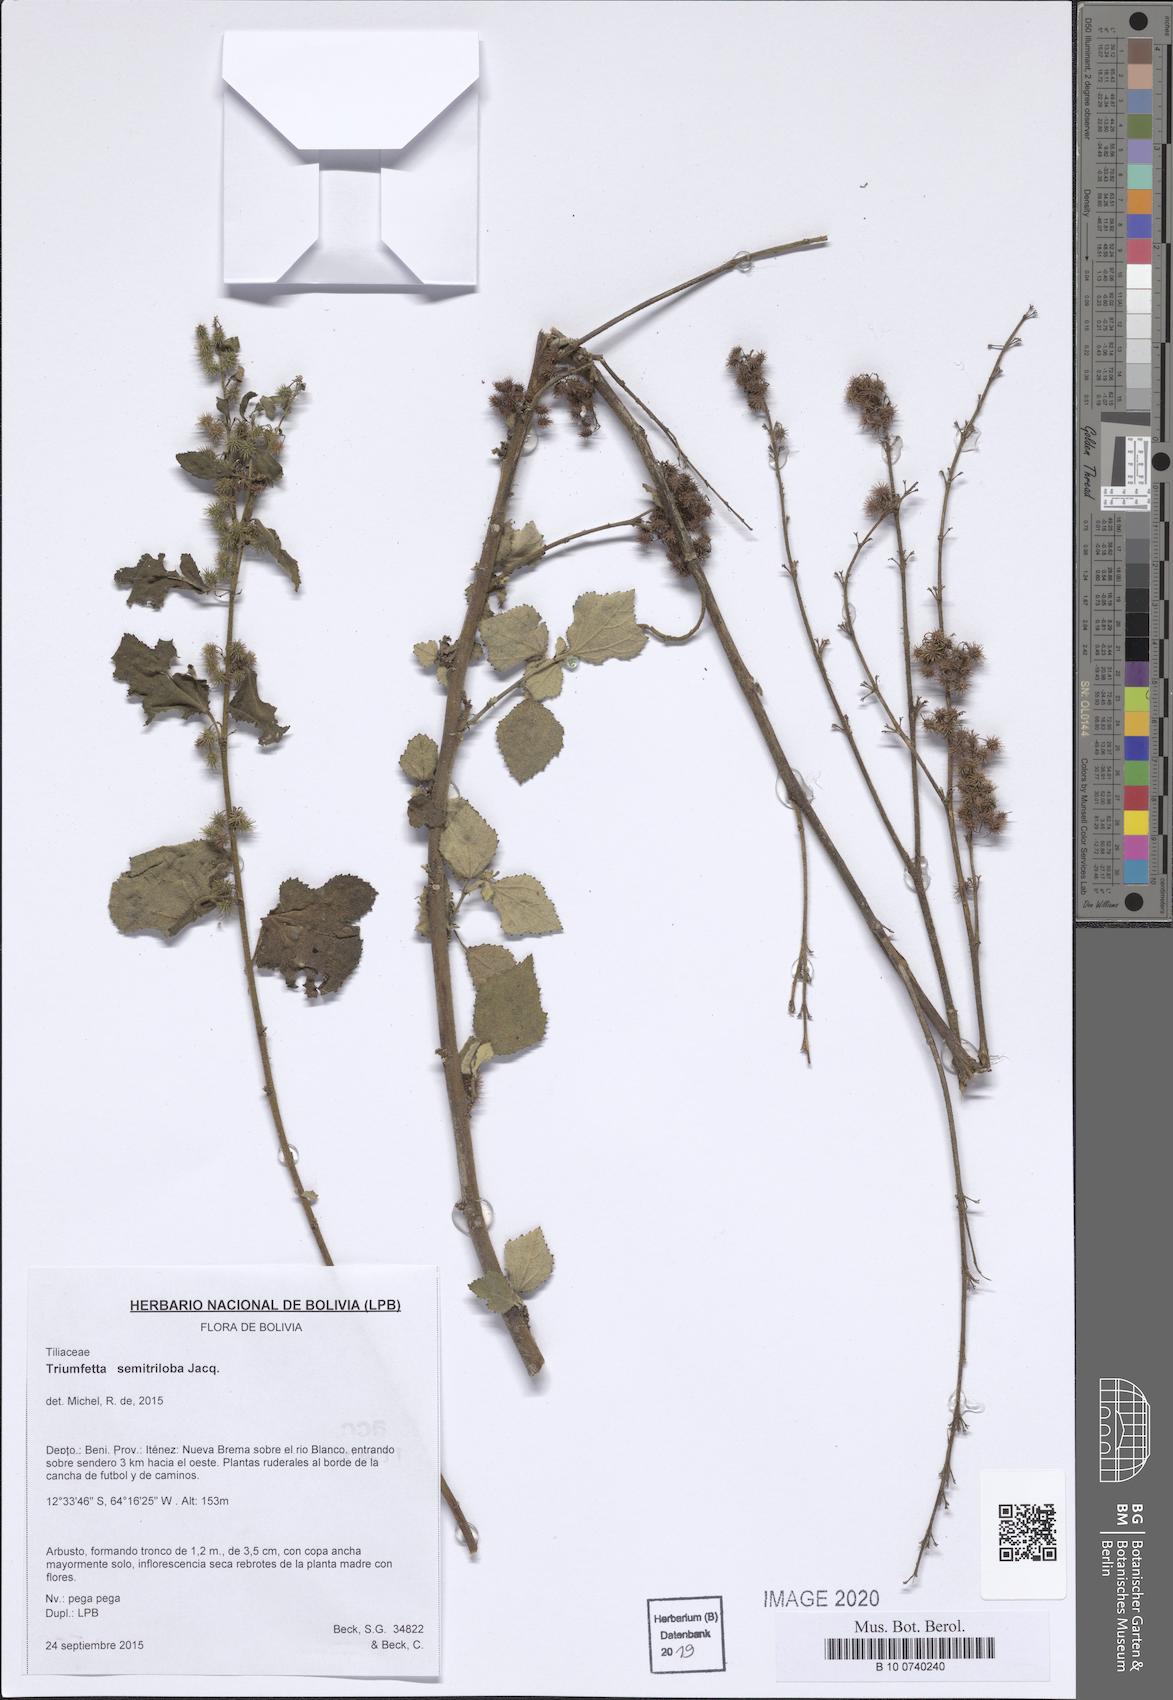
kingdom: Plantae
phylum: Tracheophyta
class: Magnoliopsida
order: Malvales
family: Malvaceae
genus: Triumfetta
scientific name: Triumfetta semitriloba
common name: Sacramento burbark
